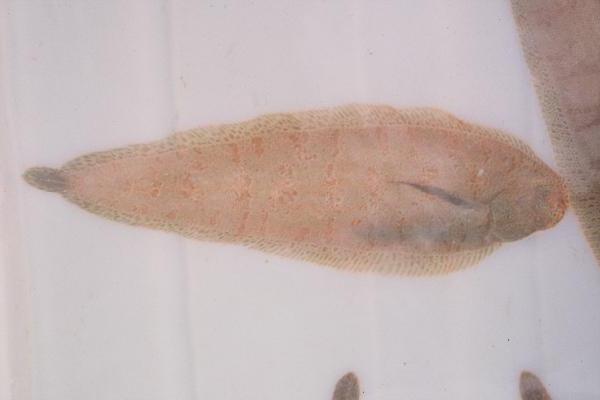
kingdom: Animalia
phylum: Chordata
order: Pleuronectiformes
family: Soleidae
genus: Austroglossus
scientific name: Austroglossus pectoralis
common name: East coast sole
